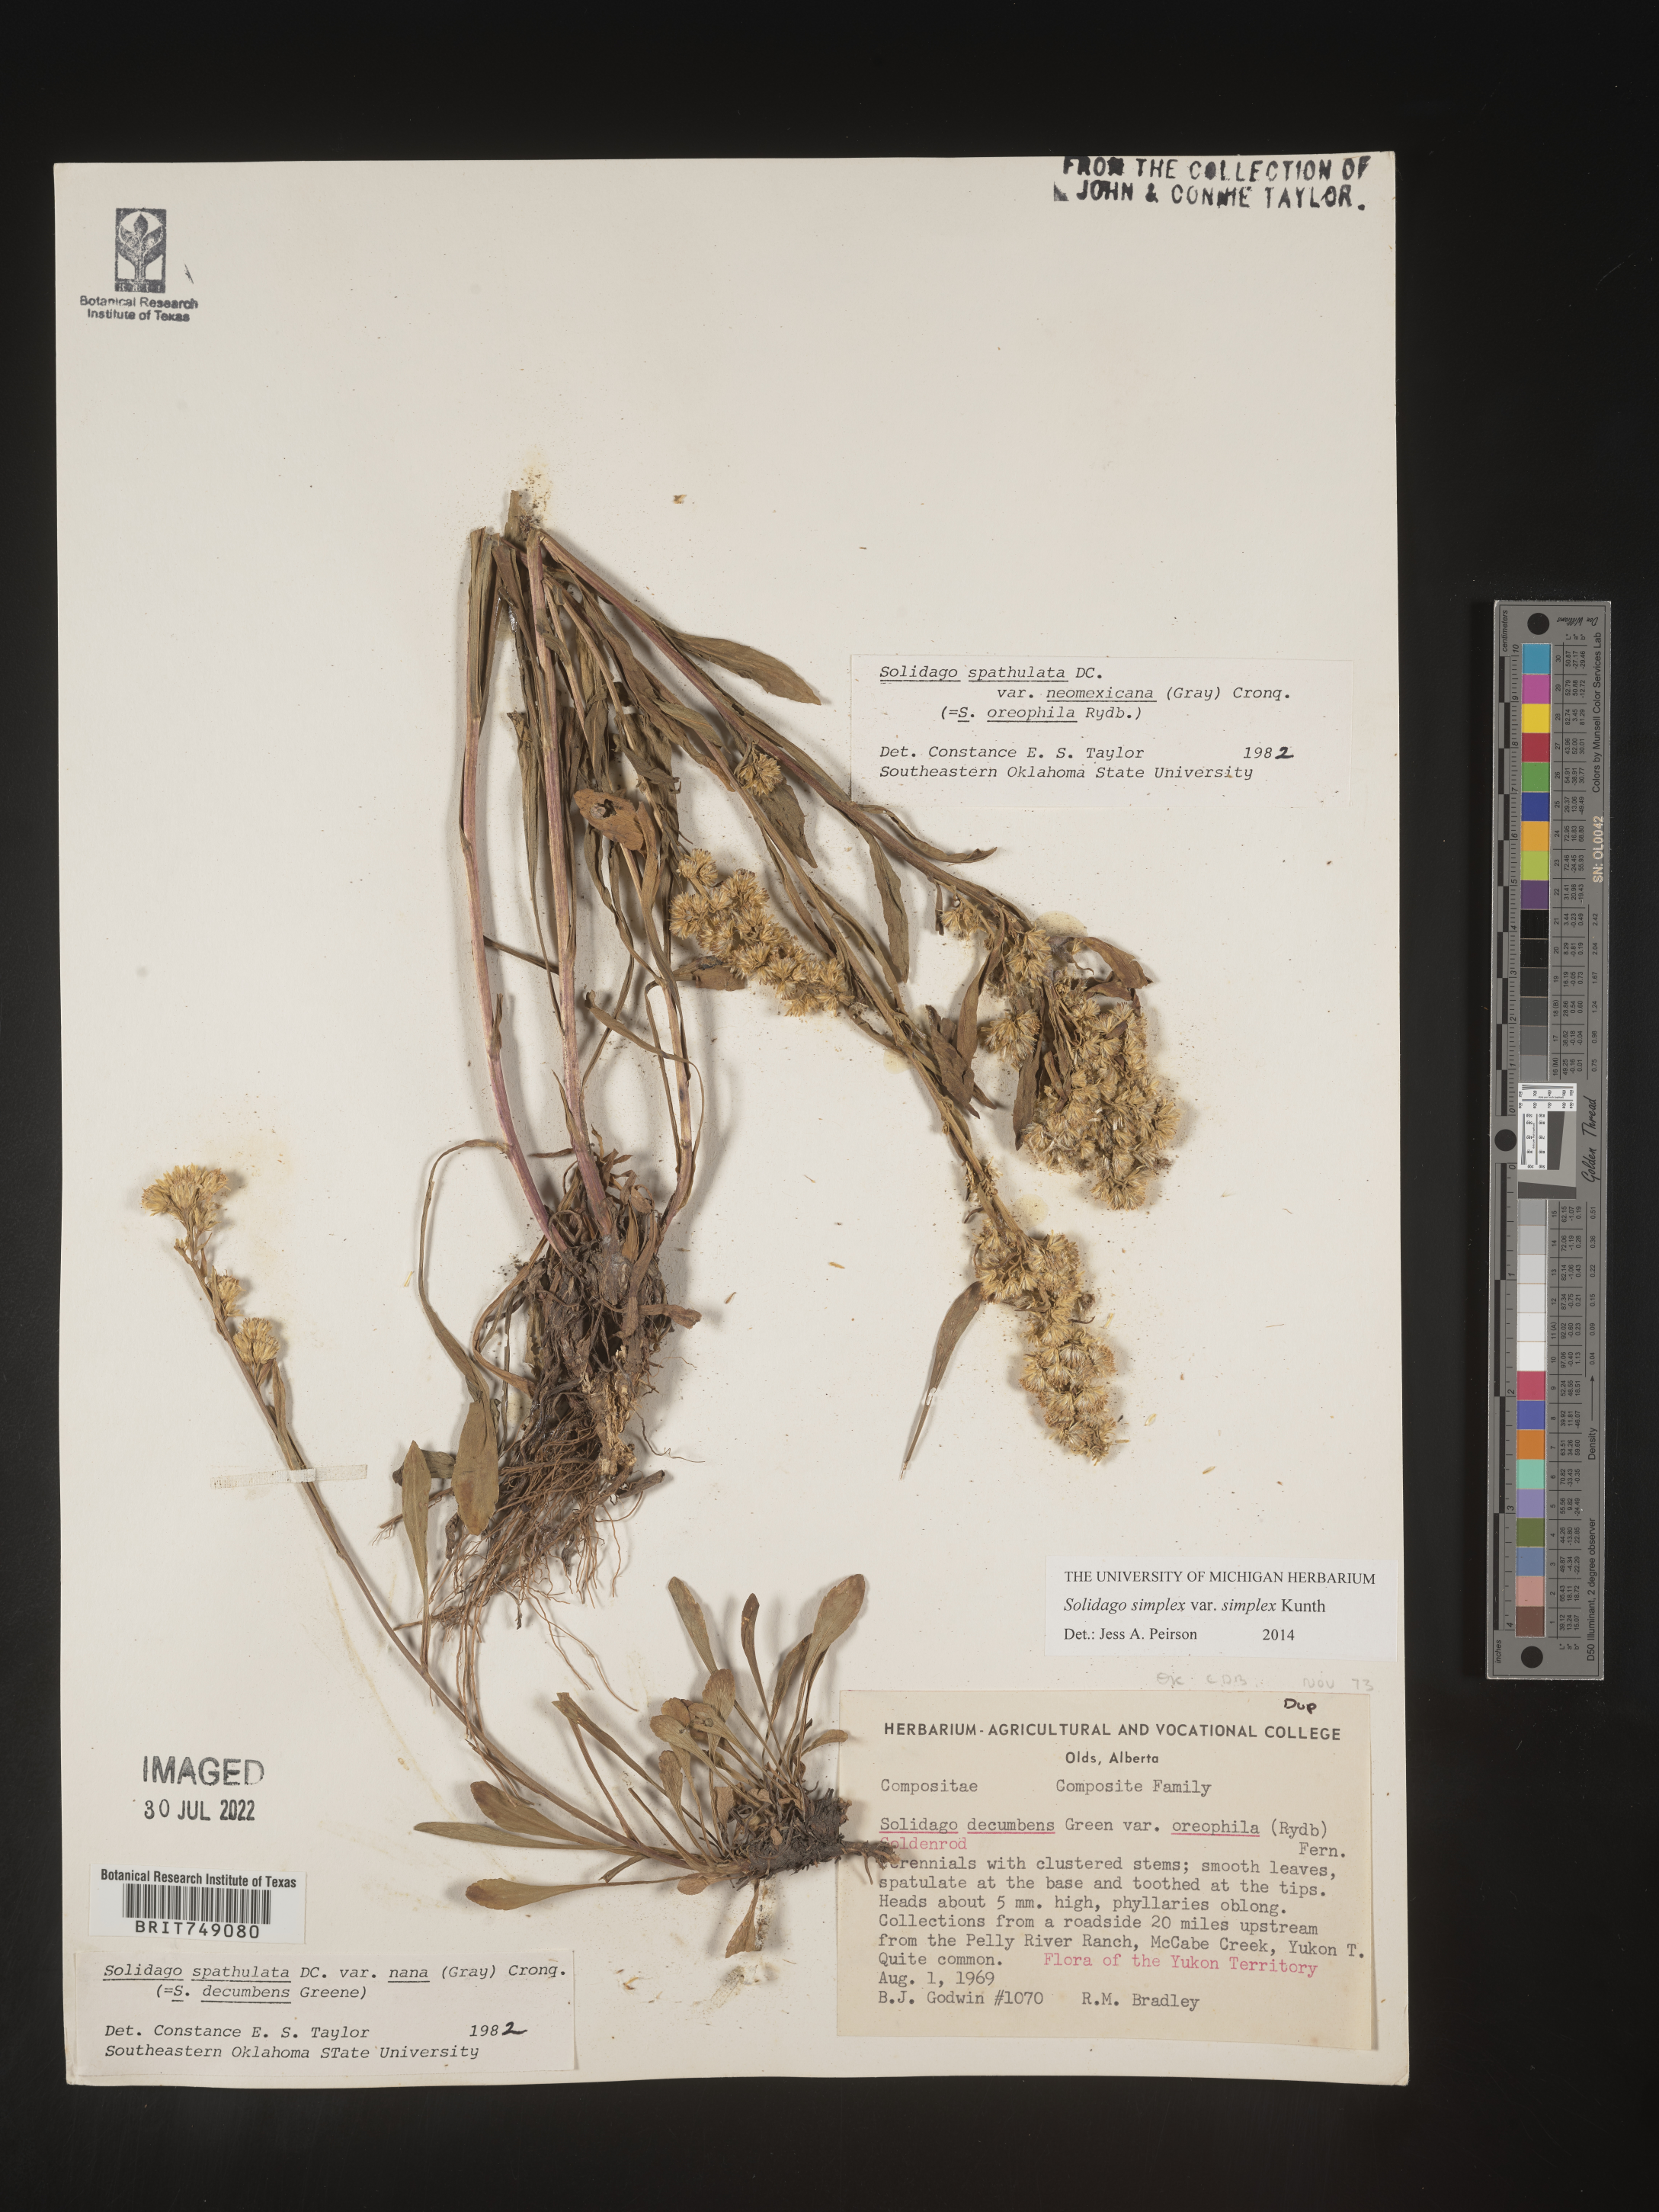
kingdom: Plantae
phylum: Tracheophyta
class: Magnoliopsida
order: Asterales
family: Asteraceae
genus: Solidago
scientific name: Solidago simplex
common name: Sticky goldenrod
